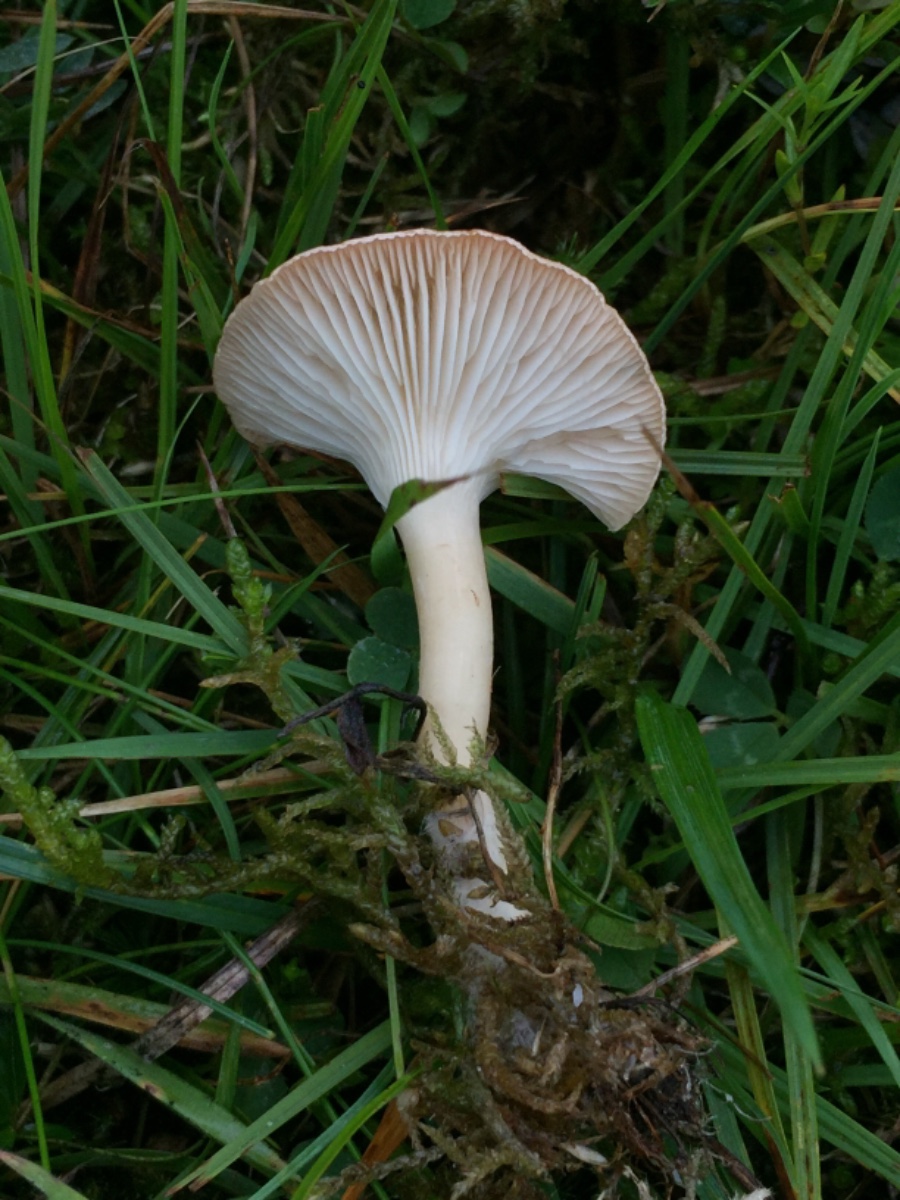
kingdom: Fungi
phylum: Basidiomycota
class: Agaricomycetes
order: Agaricales
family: Tricholomataceae
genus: Infundibulicybe
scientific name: Infundibulicybe
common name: tragthat
